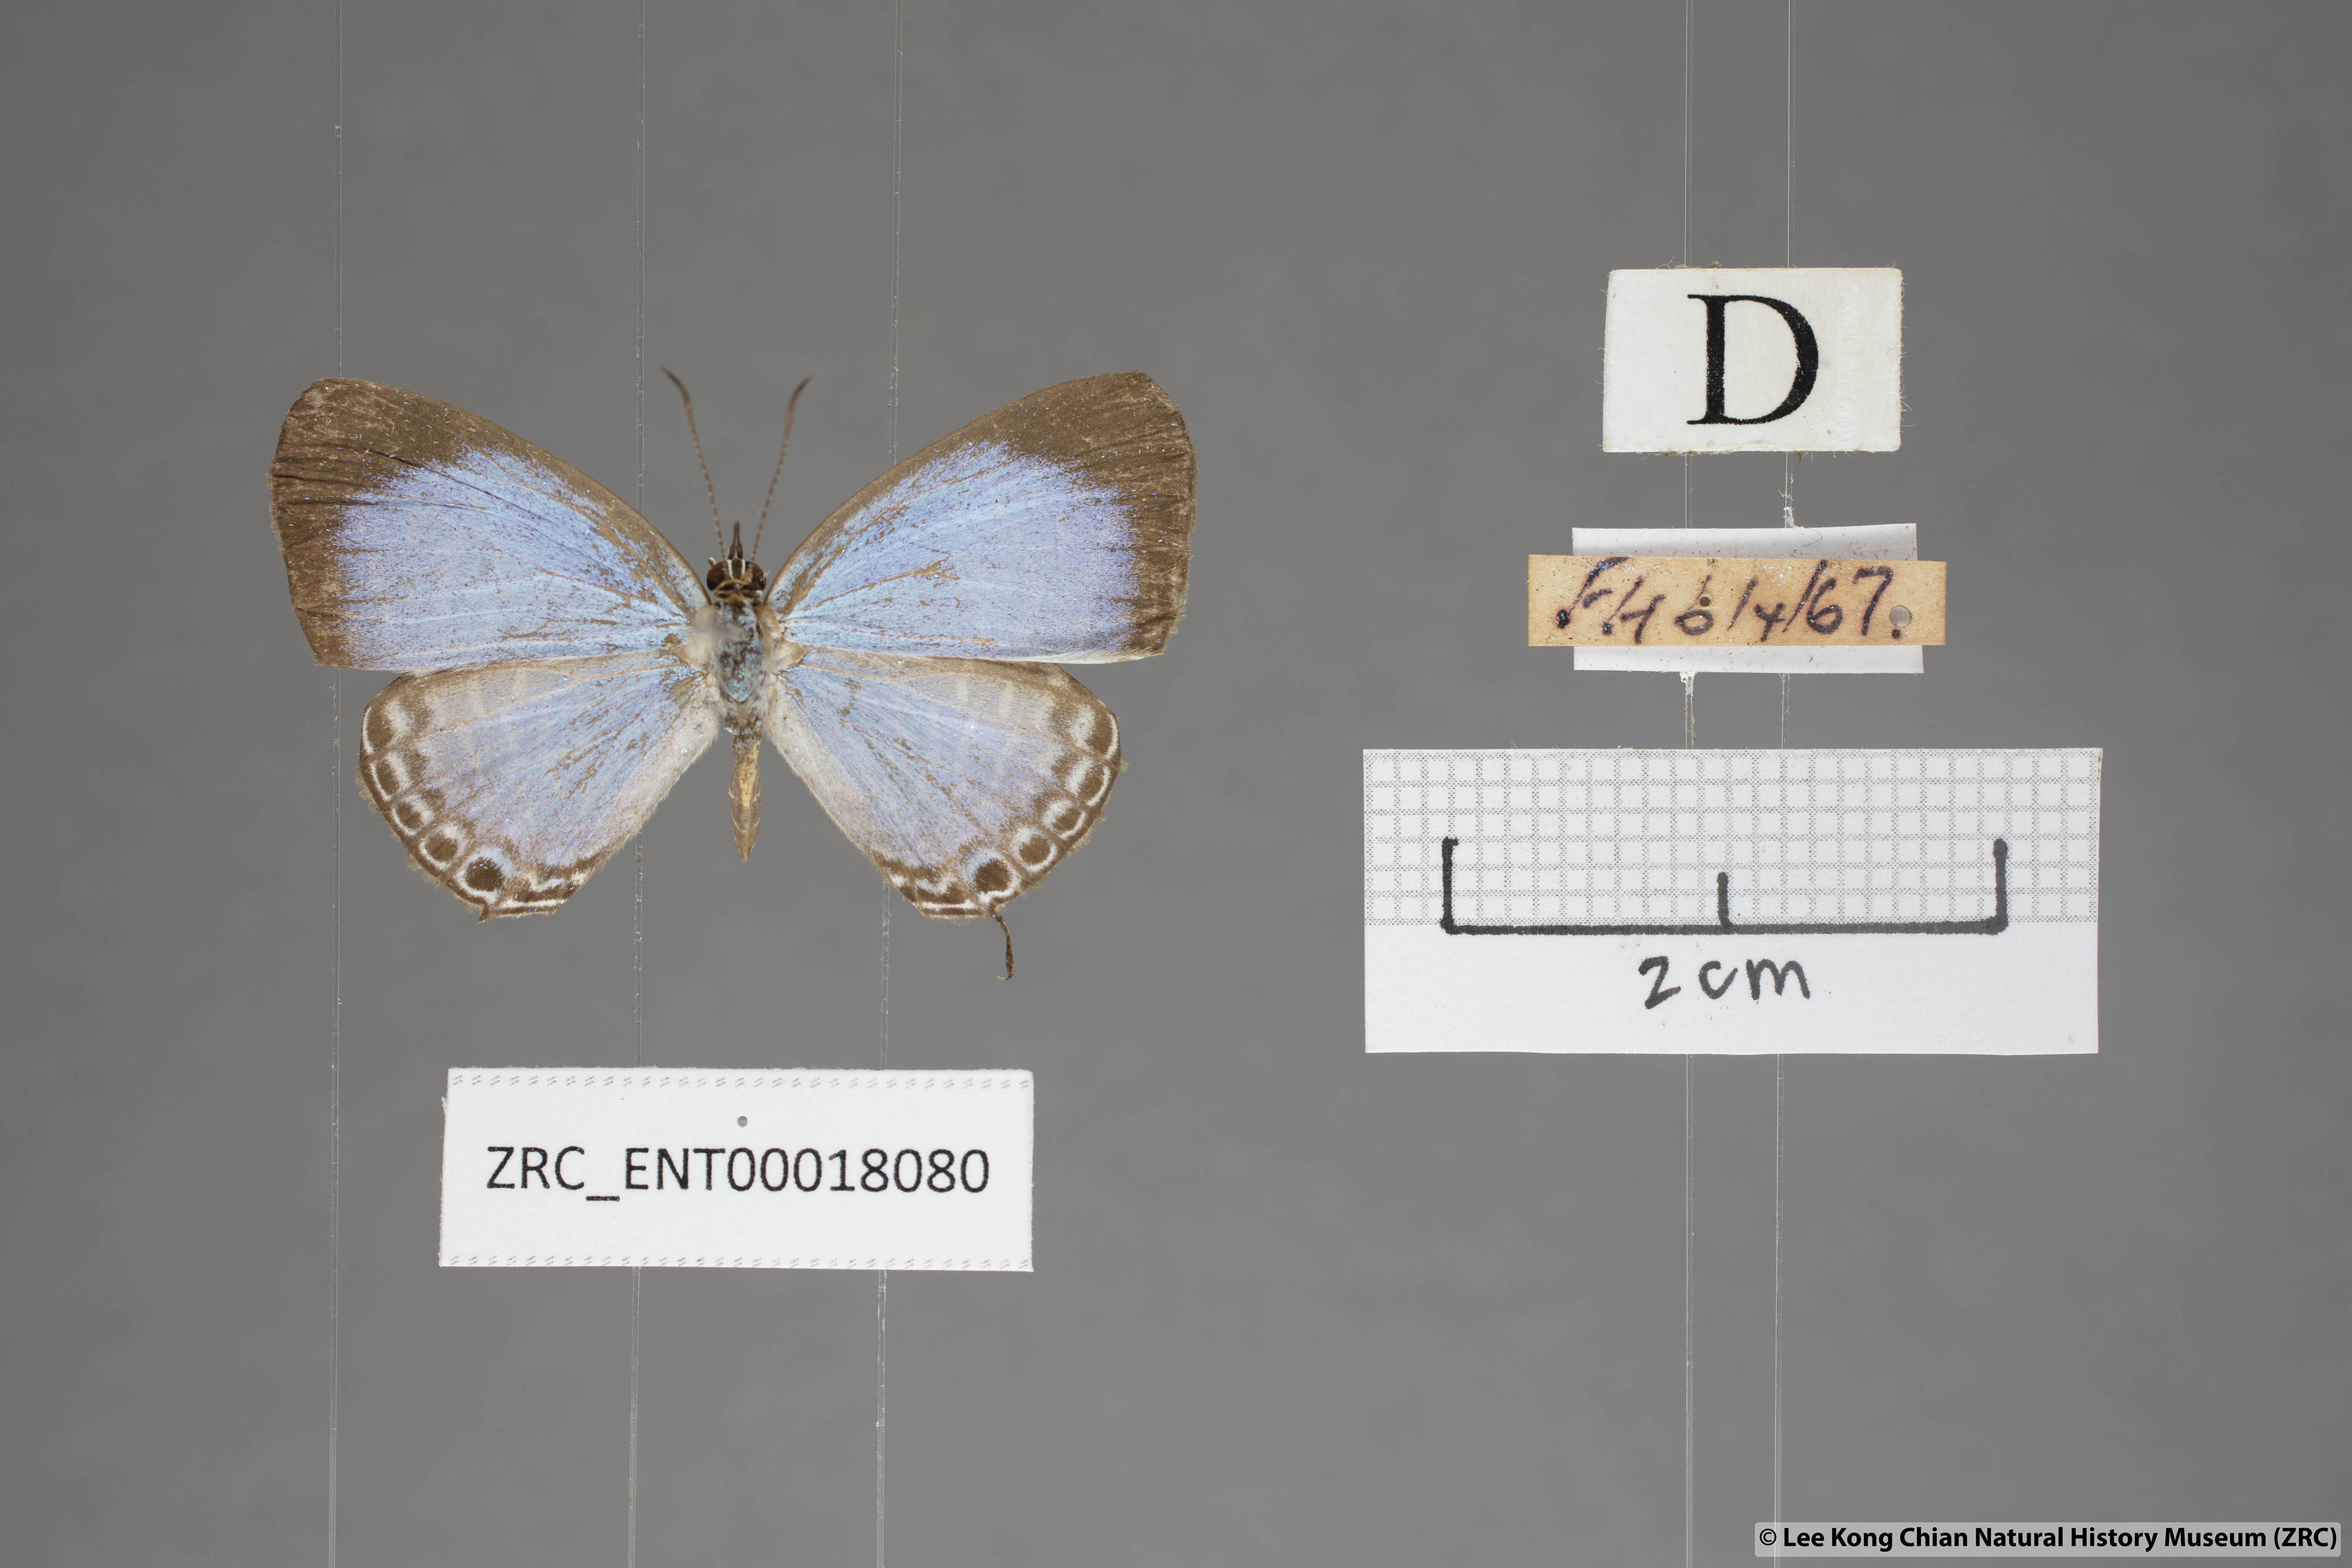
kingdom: Animalia
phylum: Arthropoda
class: Insecta
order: Lepidoptera
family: Lycaenidae
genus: Jamides
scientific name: Jamides caerulea
